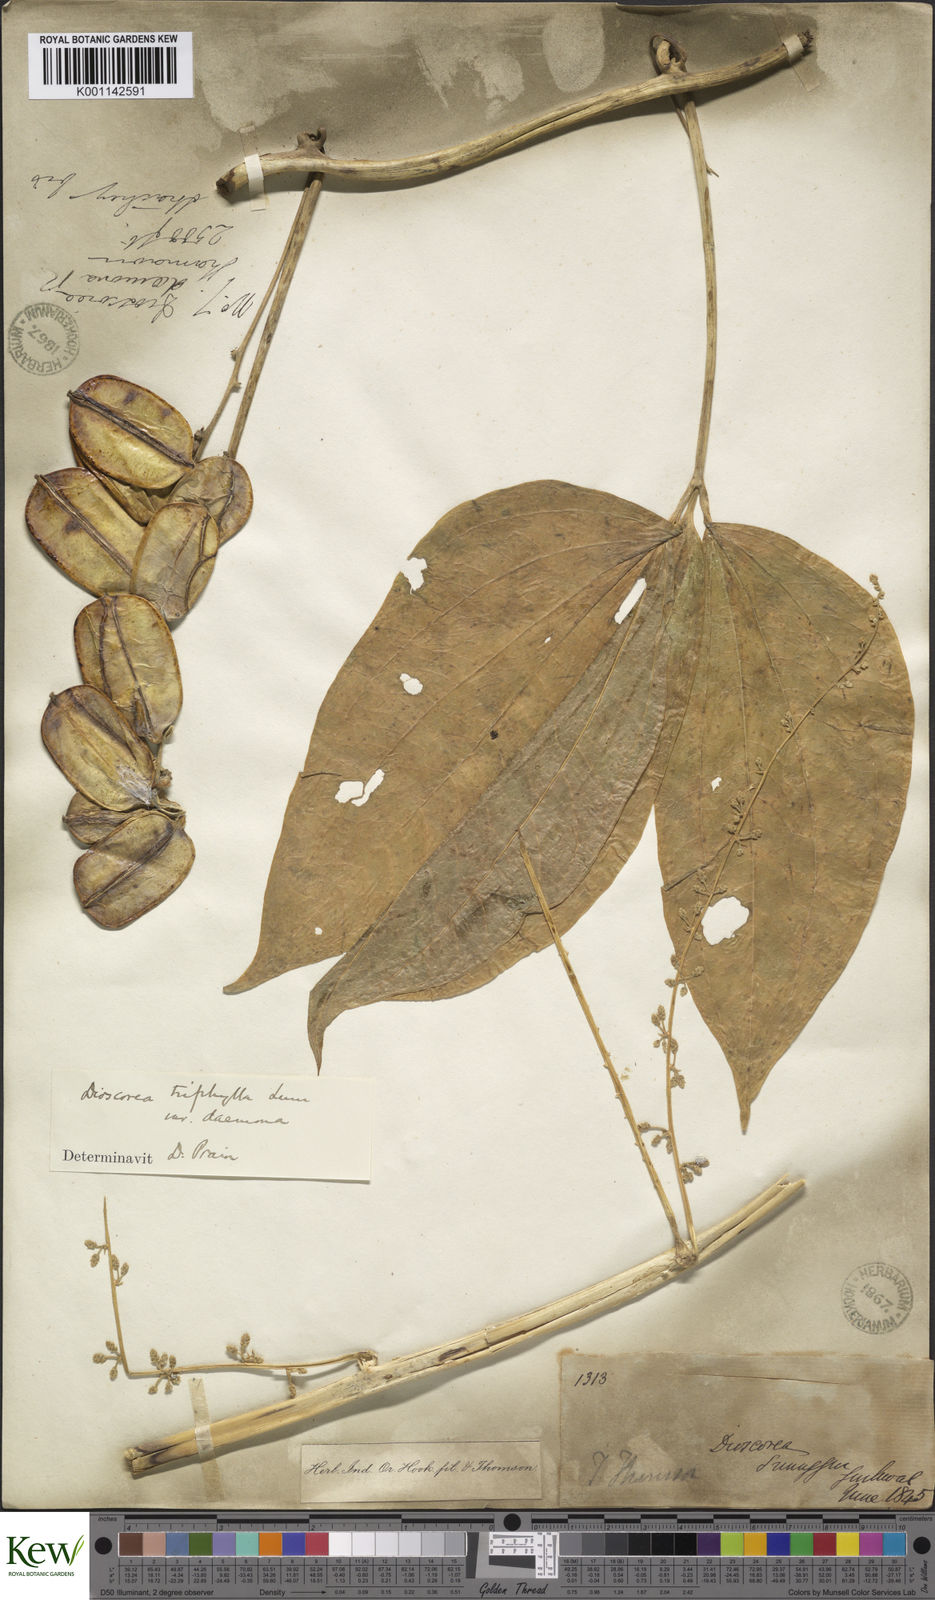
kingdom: Plantae
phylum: Tracheophyta
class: Liliopsida
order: Dioscoreales
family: Dioscoreaceae
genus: Dioscorea
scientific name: Dioscorea pentaphylla
